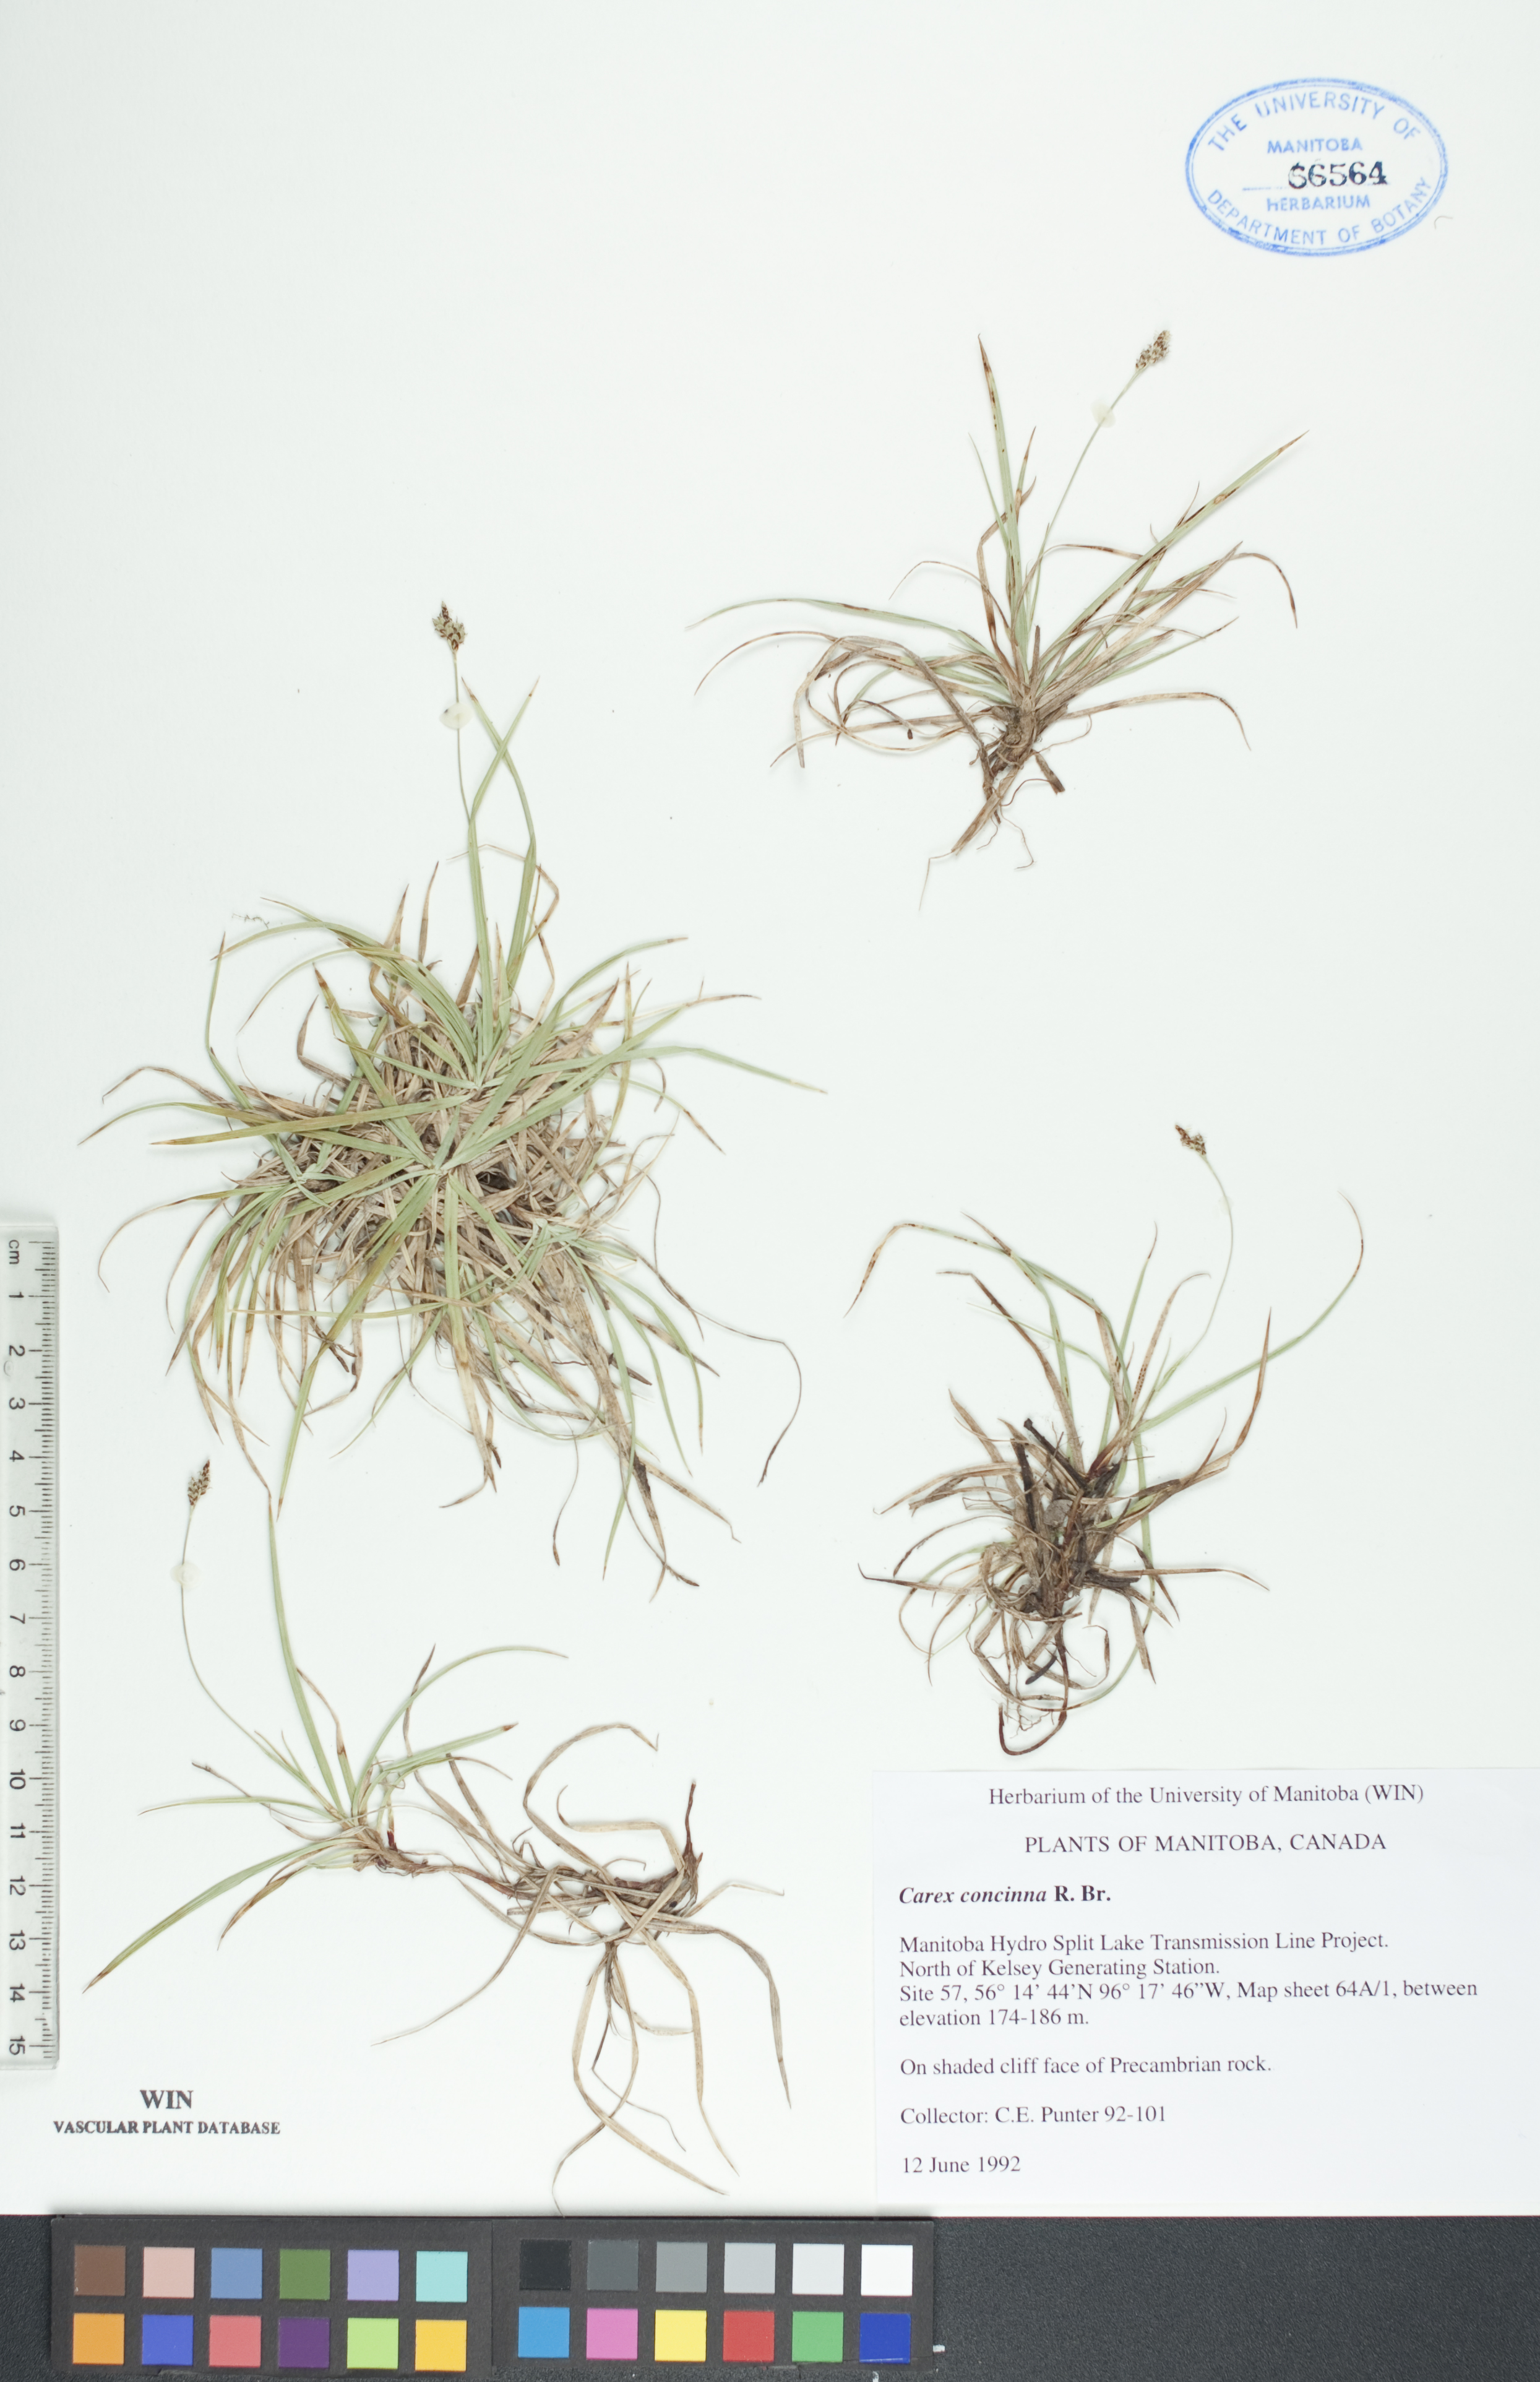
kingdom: Plantae
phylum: Tracheophyta
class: Liliopsida
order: Poales
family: Cyperaceae
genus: Carex
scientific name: Carex concinna
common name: Beautiful sedge
